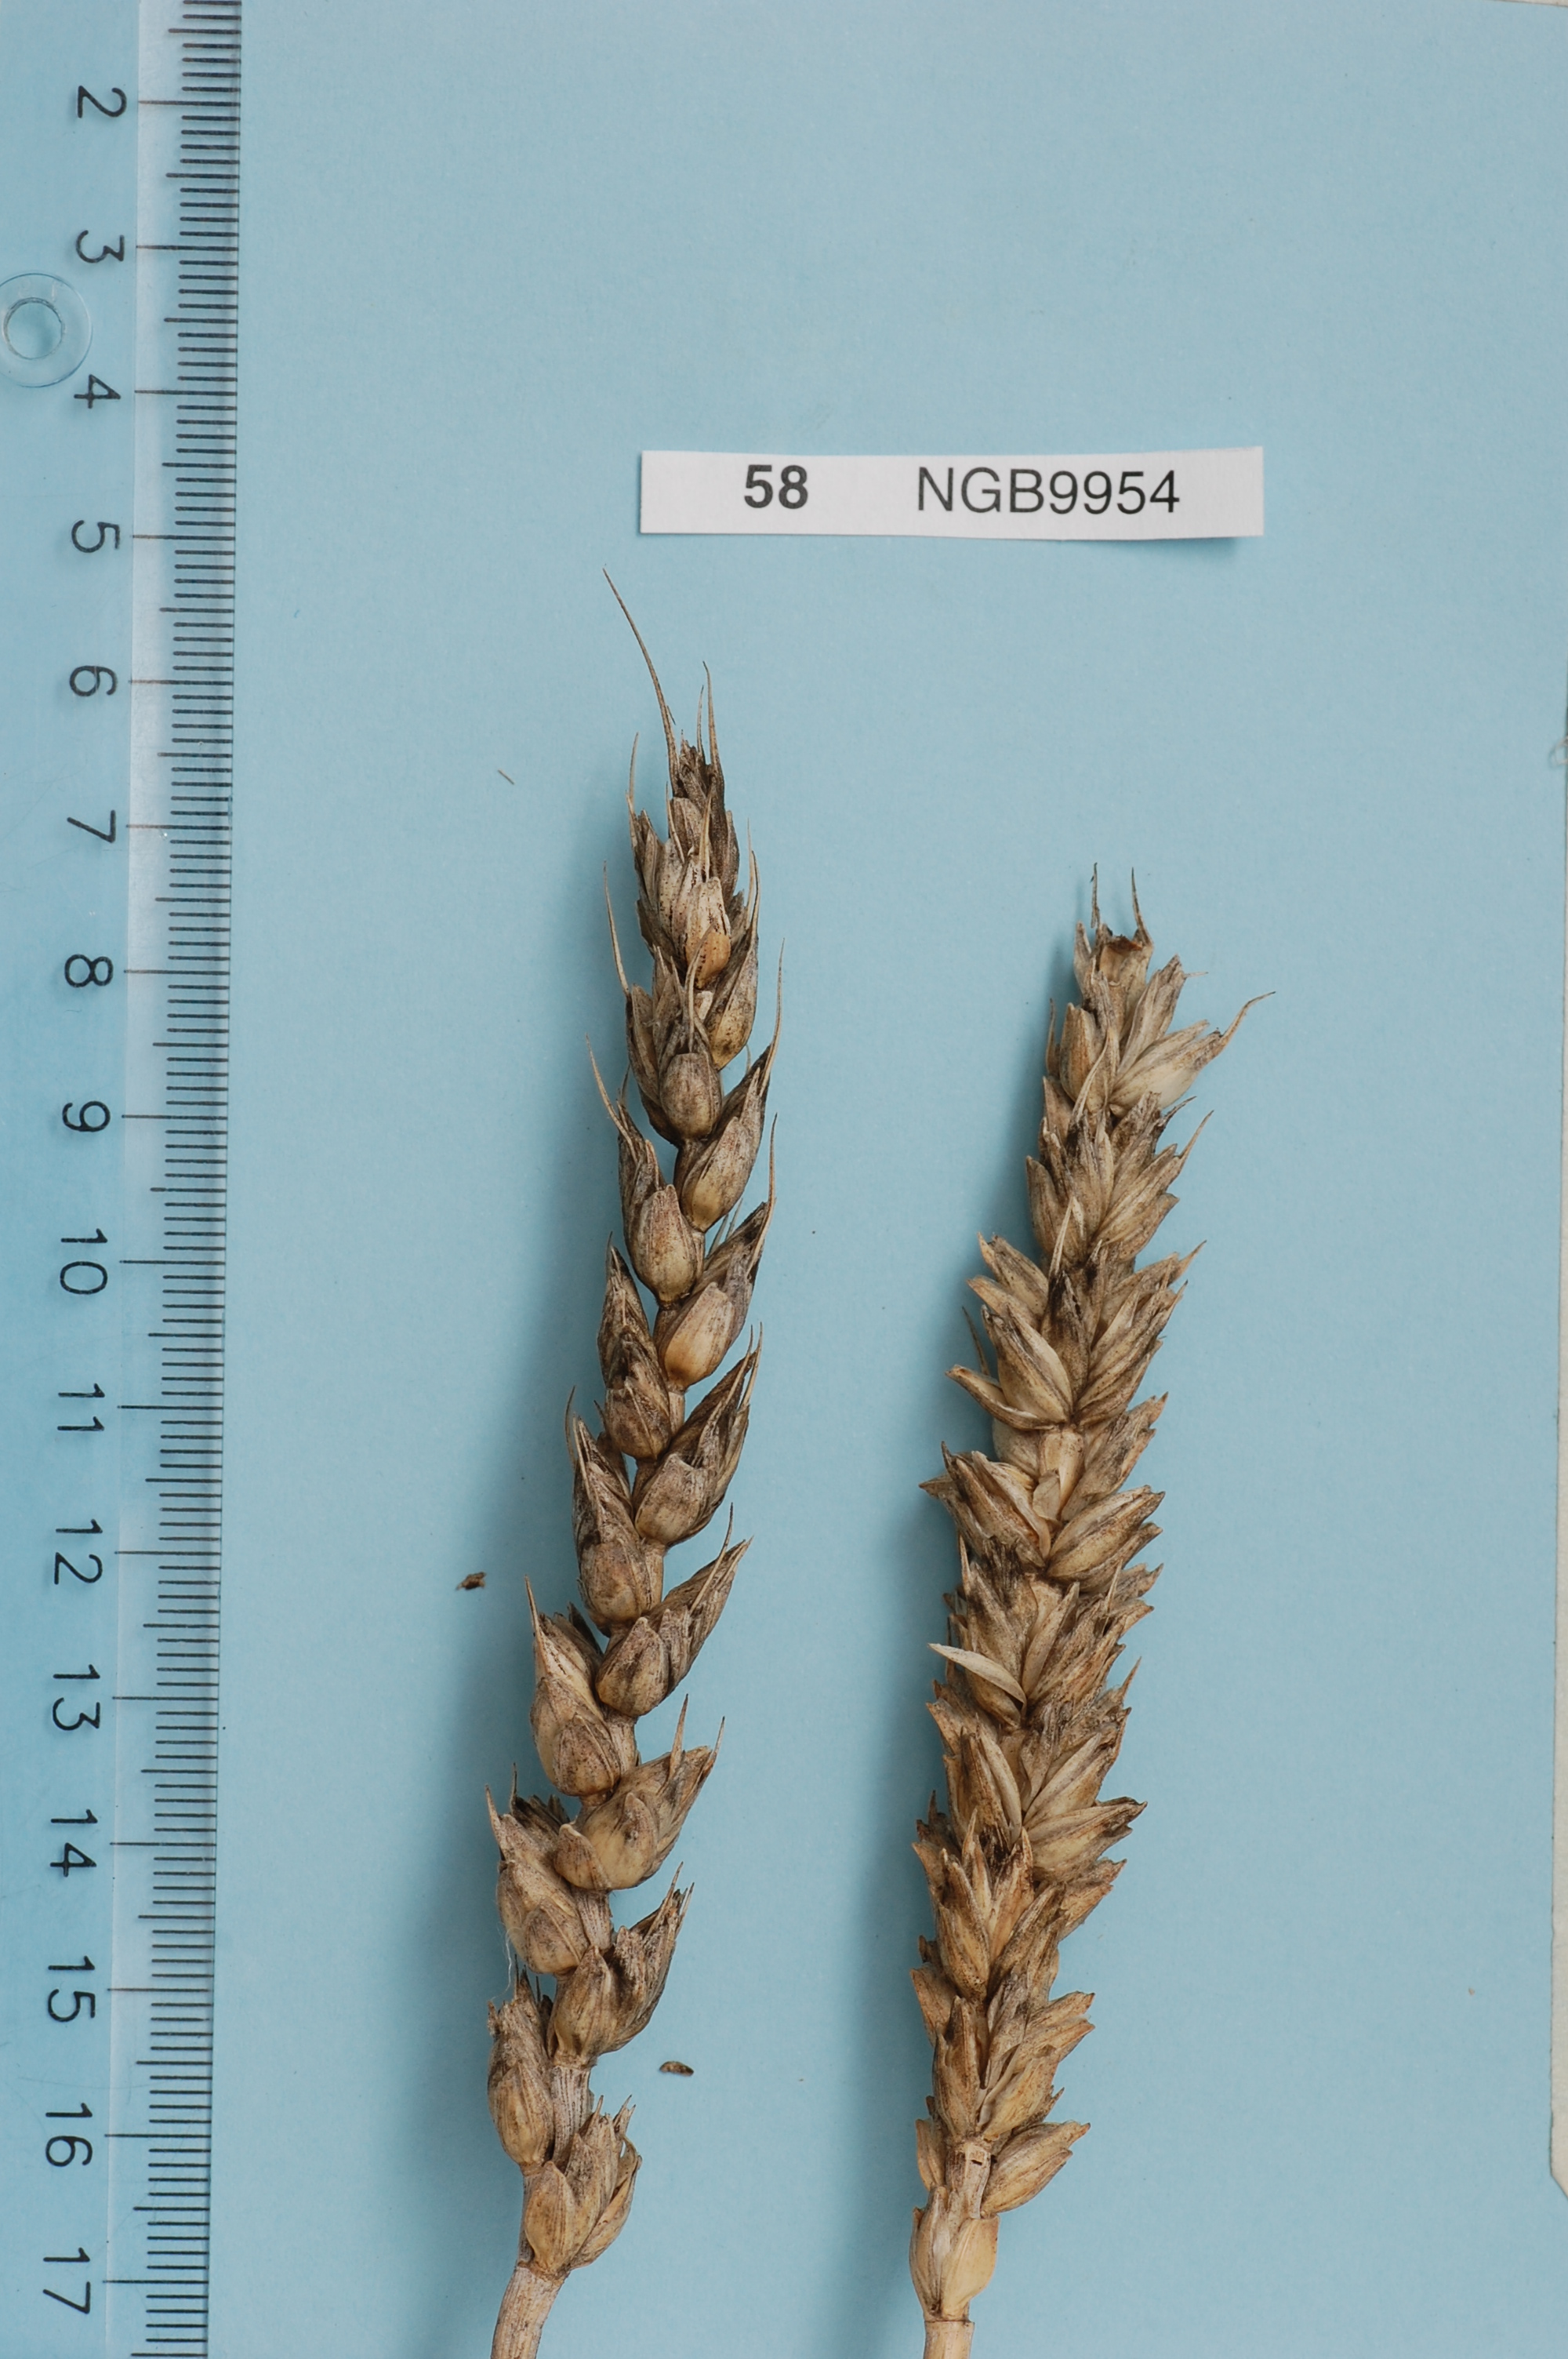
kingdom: Plantae
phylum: Tracheophyta
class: Liliopsida
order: Poales
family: Poaceae
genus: Triticum
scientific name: Triticum aestivum
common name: Common wheat
